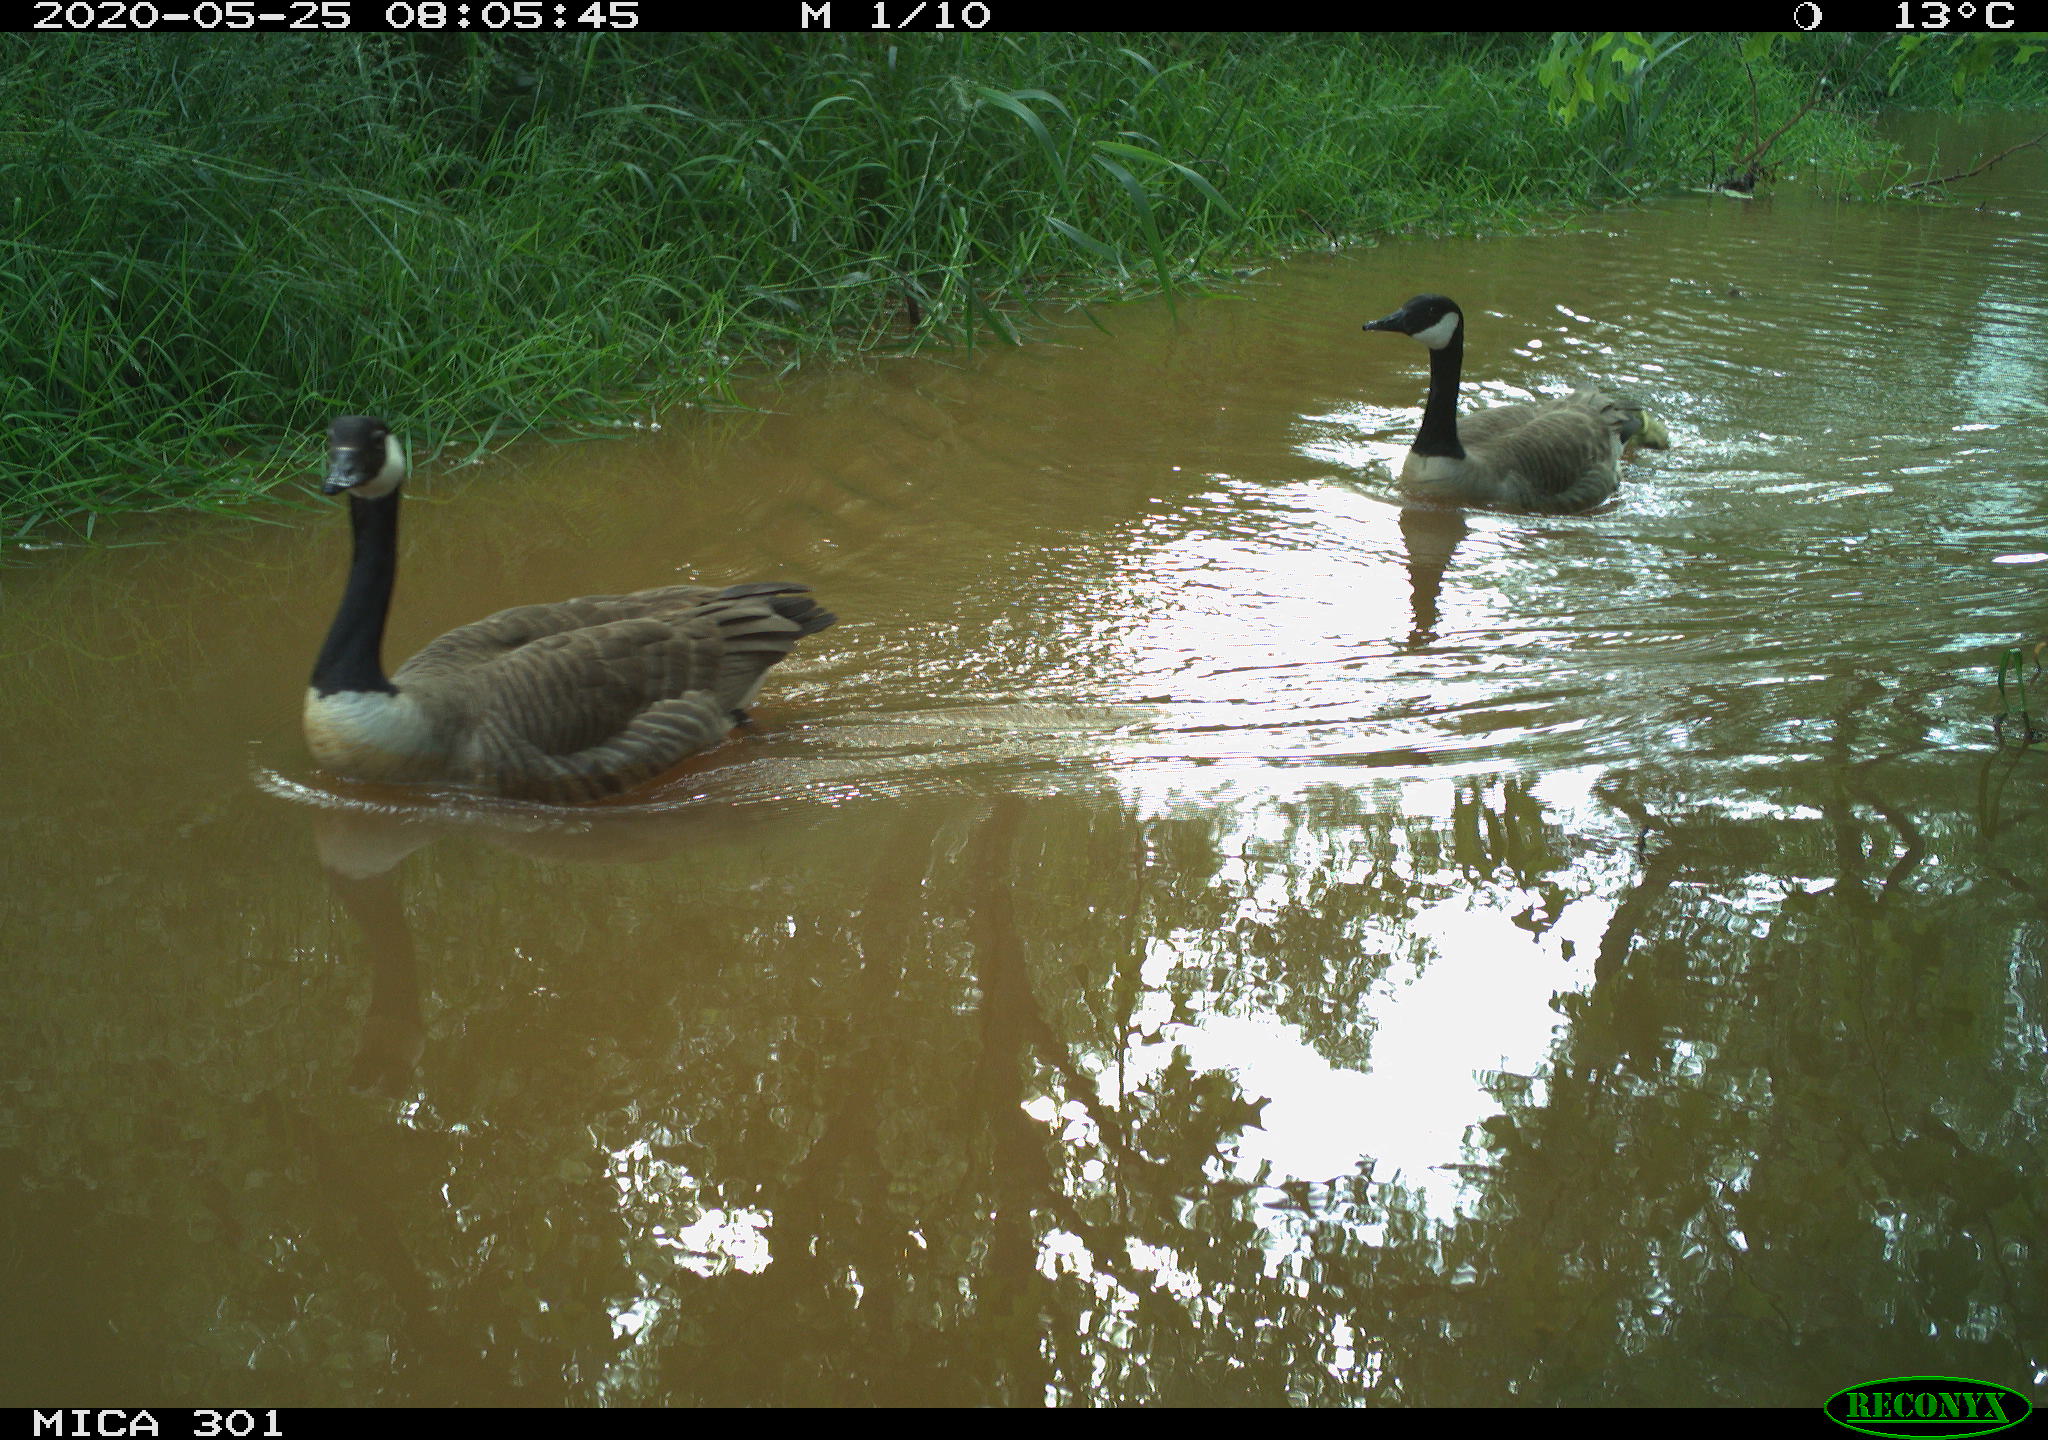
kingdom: Animalia
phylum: Chordata
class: Aves
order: Anseriformes
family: Anatidae
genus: Branta
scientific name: Branta canadensis
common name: Canada goose
